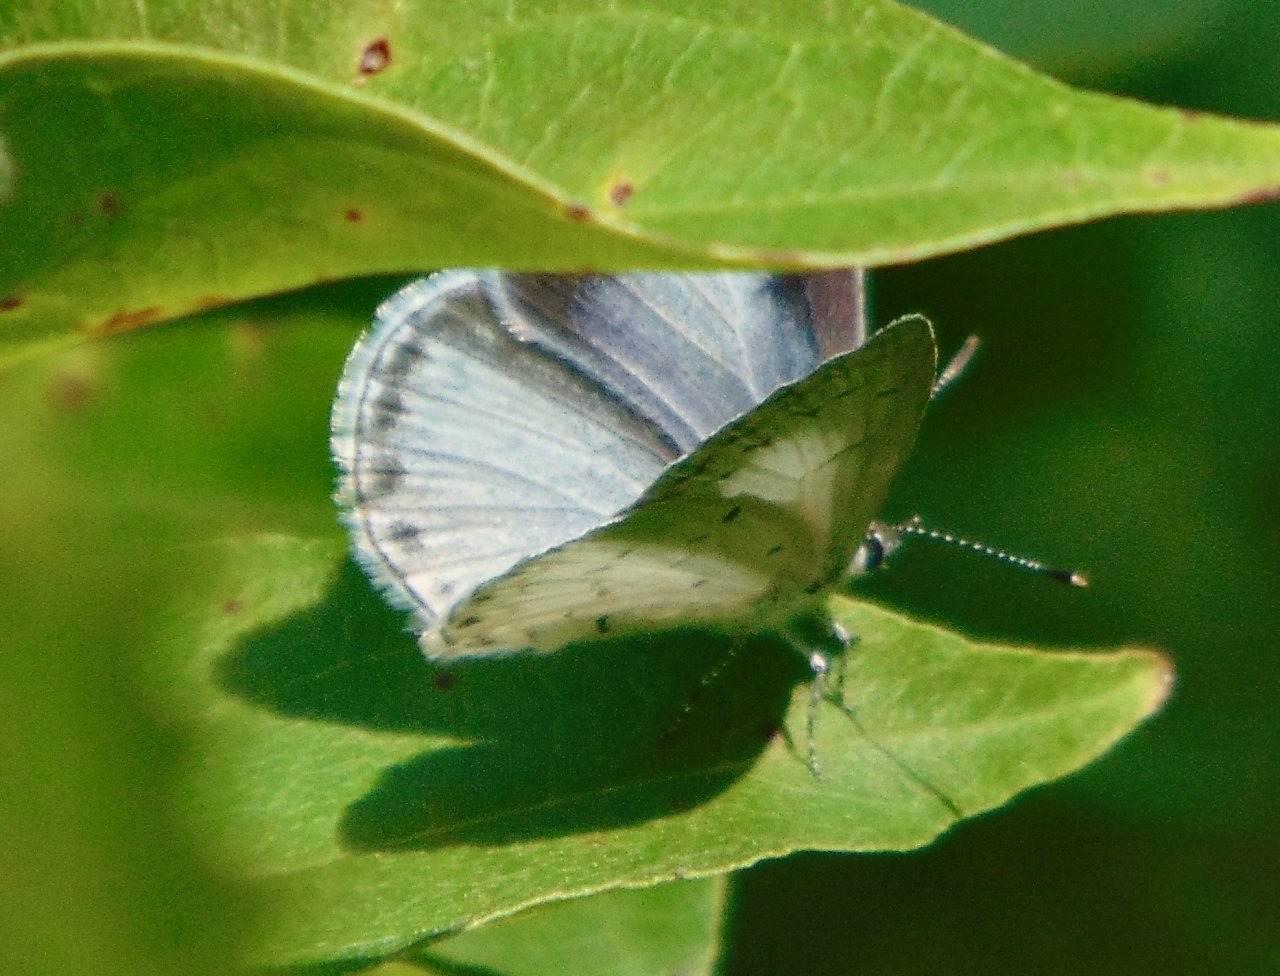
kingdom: Animalia
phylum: Arthropoda
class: Insecta
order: Lepidoptera
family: Lycaenidae
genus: Cyaniris
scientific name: Cyaniris neglecta
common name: Summer Azure
